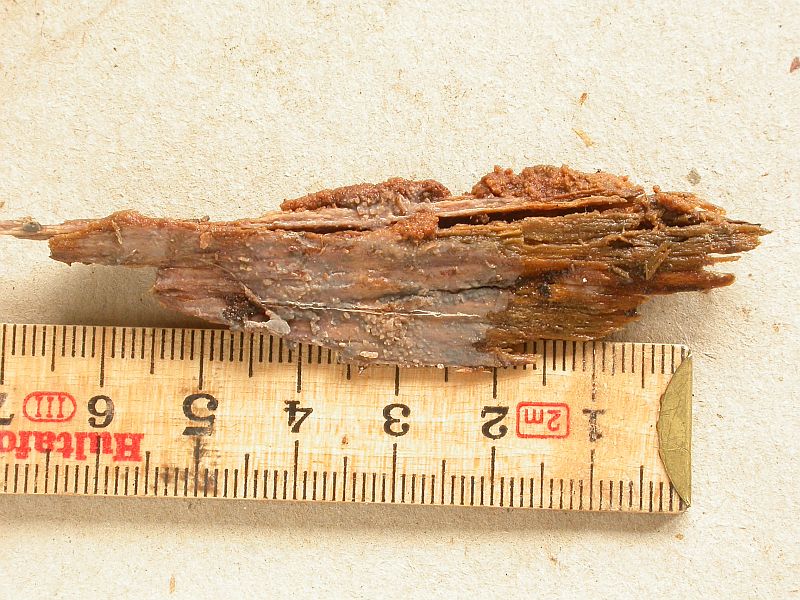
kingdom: Fungi
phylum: Basidiomycota
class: Agaricomycetes
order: Corticiales
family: Corticiaceae
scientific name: Corticiaceae
